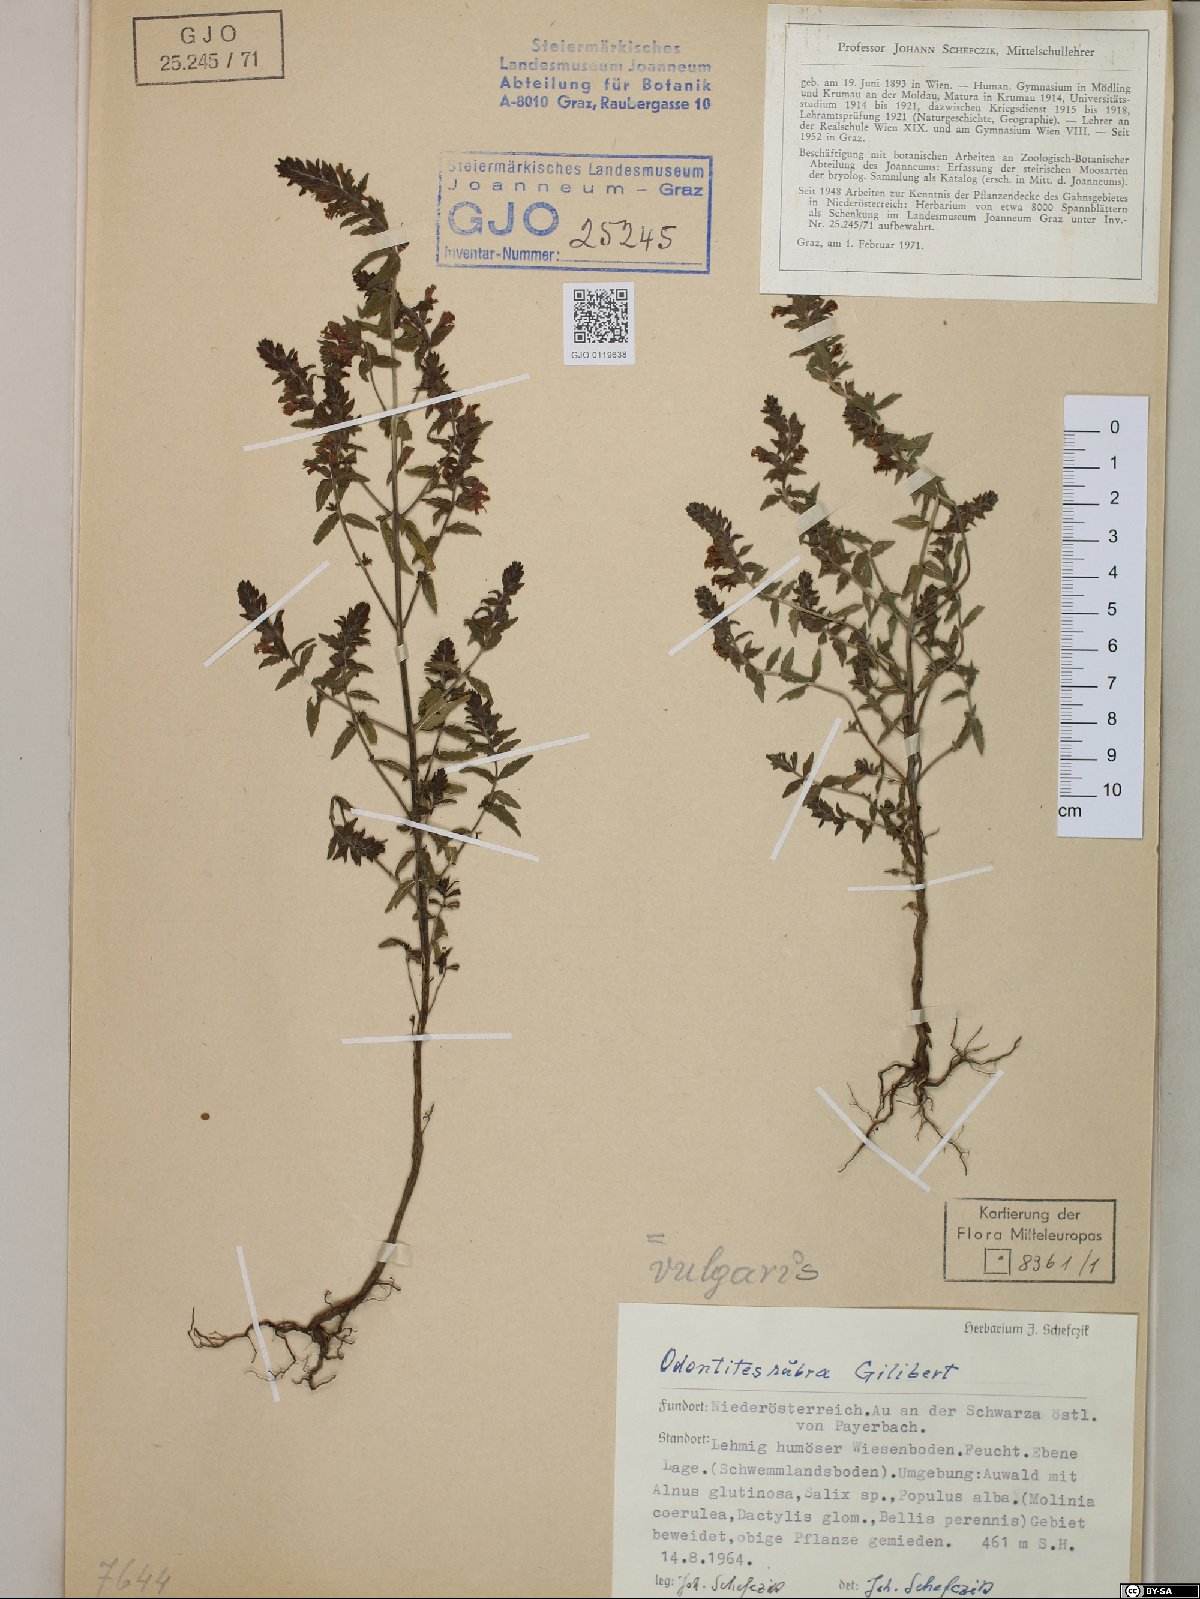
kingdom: Plantae
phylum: Tracheophyta
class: Magnoliopsida
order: Lamiales
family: Orobanchaceae
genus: Odontites
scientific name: Odontites vulgaris
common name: Broomrape
